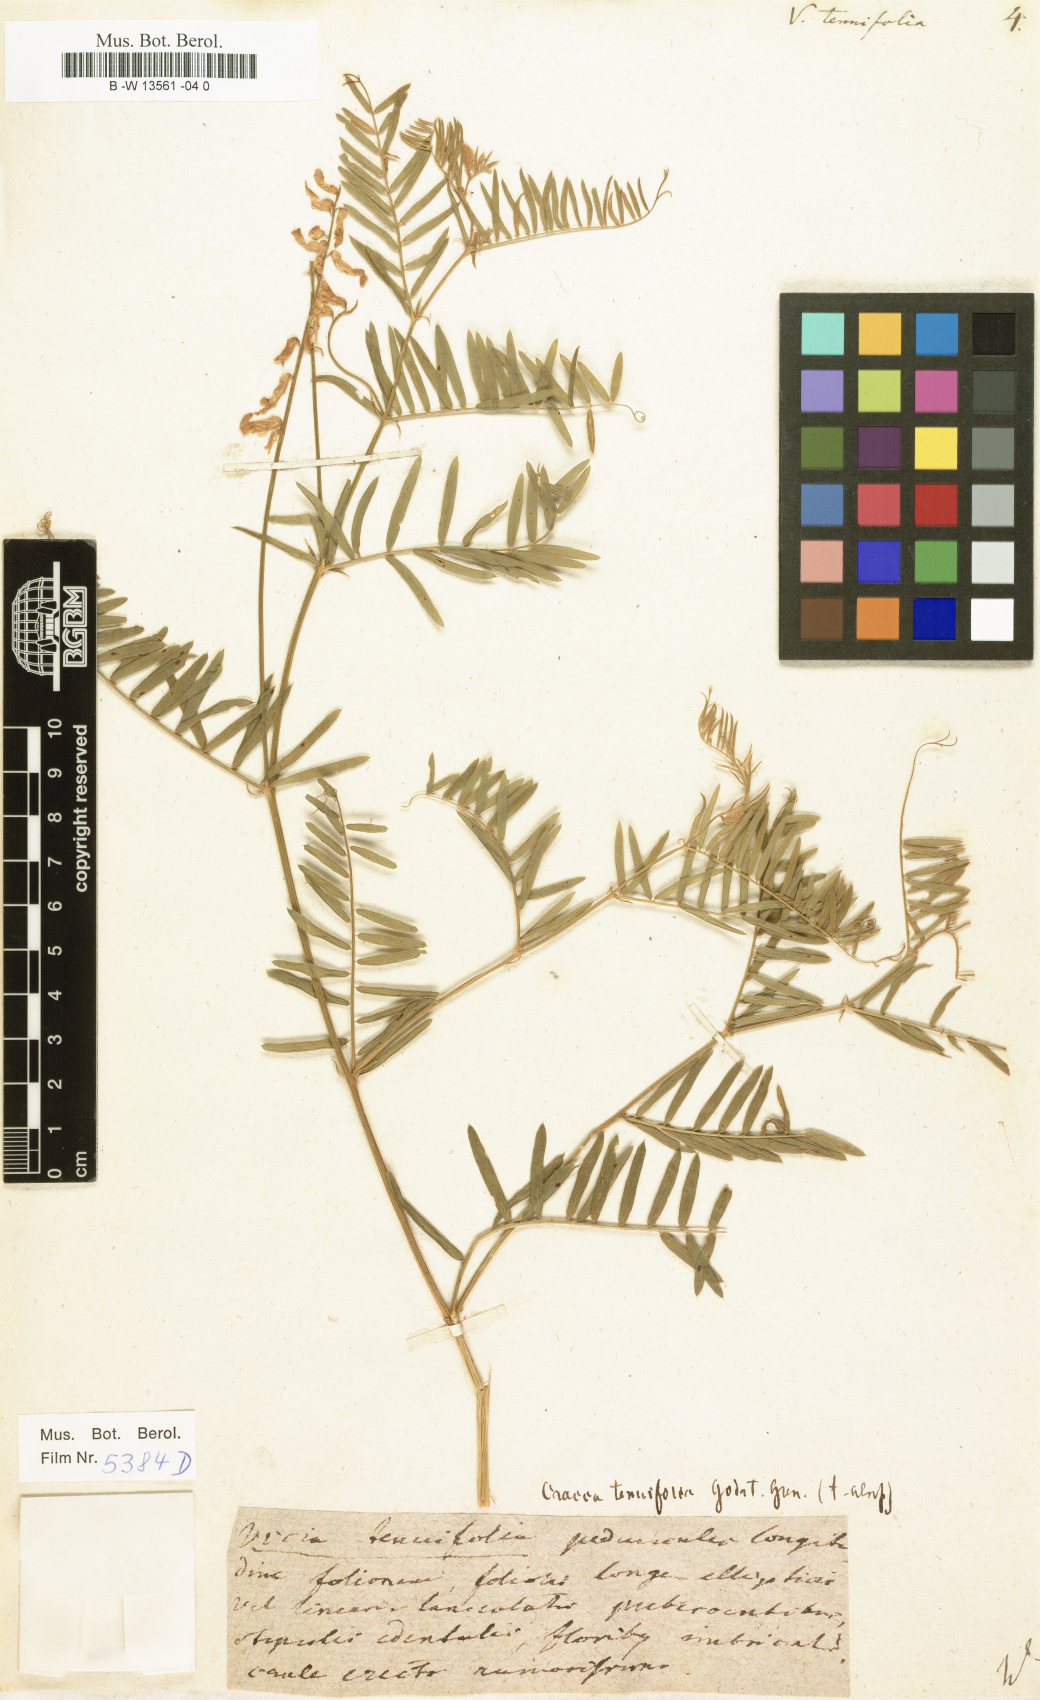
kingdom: Plantae
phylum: Tracheophyta
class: Magnoliopsida
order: Fabales
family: Fabaceae
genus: Vicia
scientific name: Vicia tenuifolia
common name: Fine-leaved vetch
